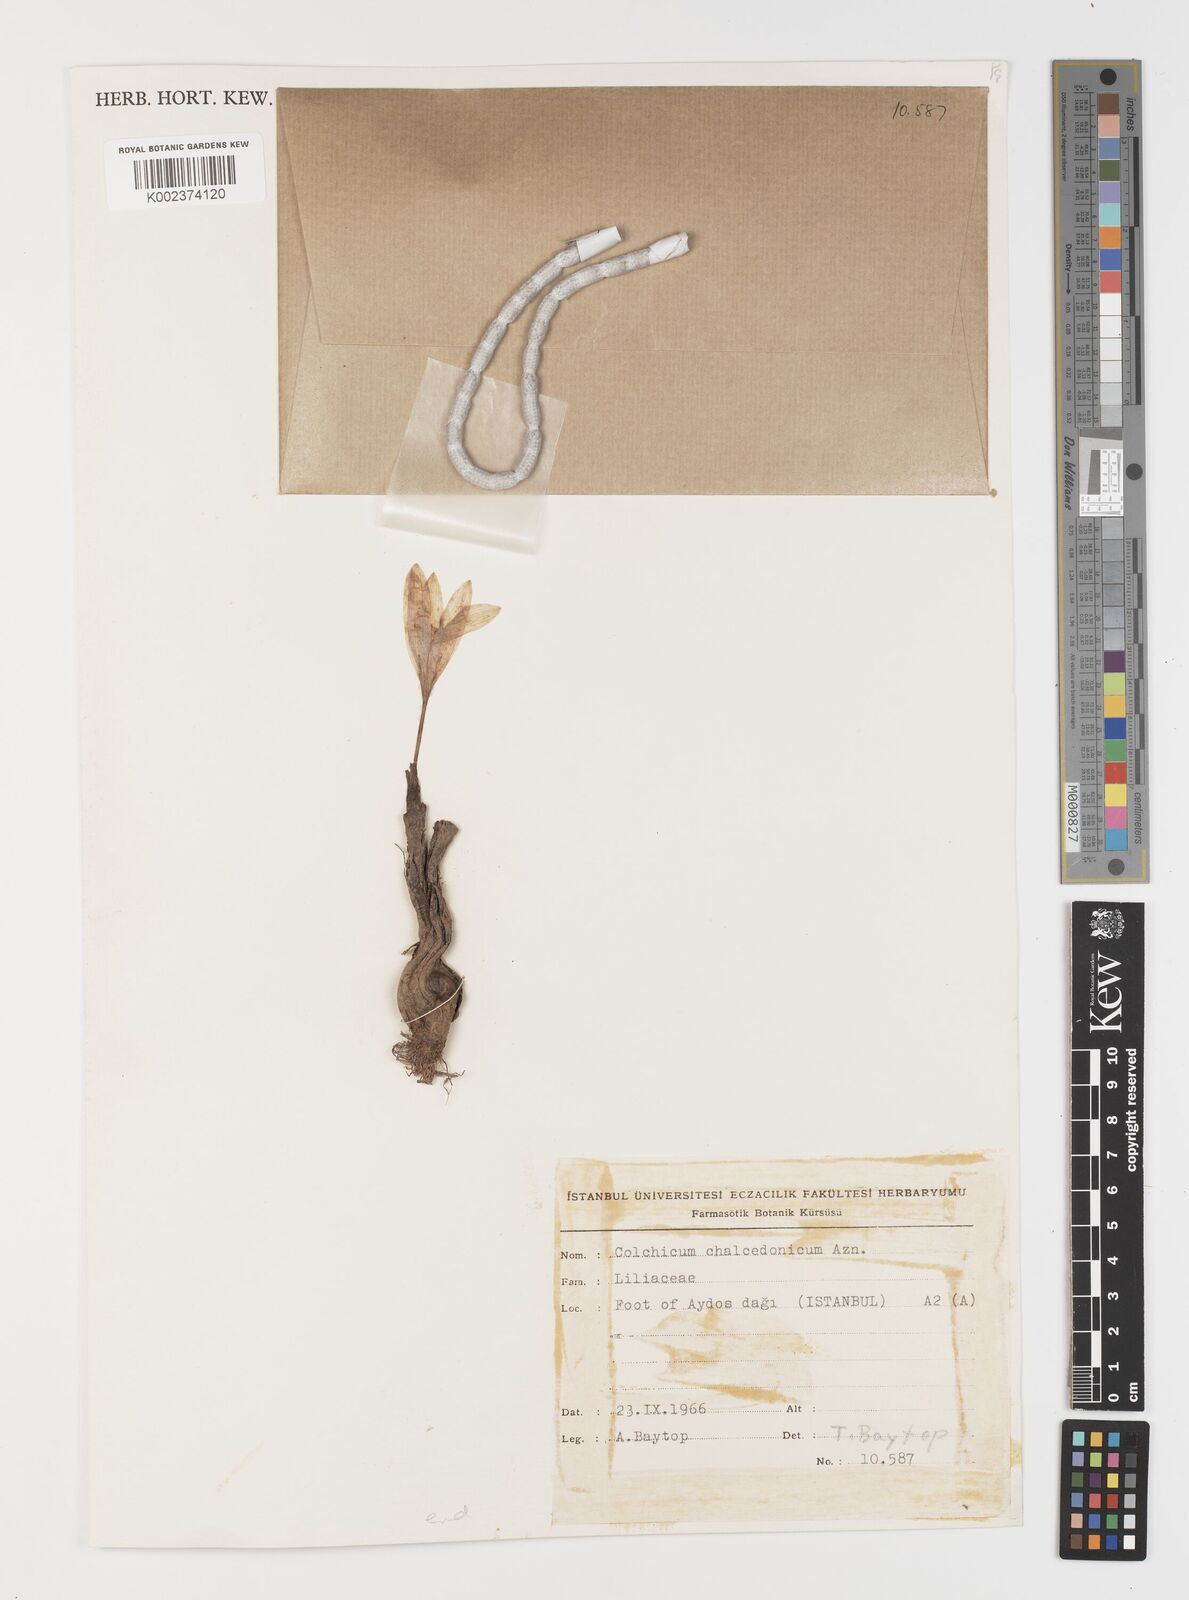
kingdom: Plantae
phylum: Tracheophyta
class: Liliopsida
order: Liliales
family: Colchicaceae
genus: Colchicum
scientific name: Colchicum chalcedonicum
